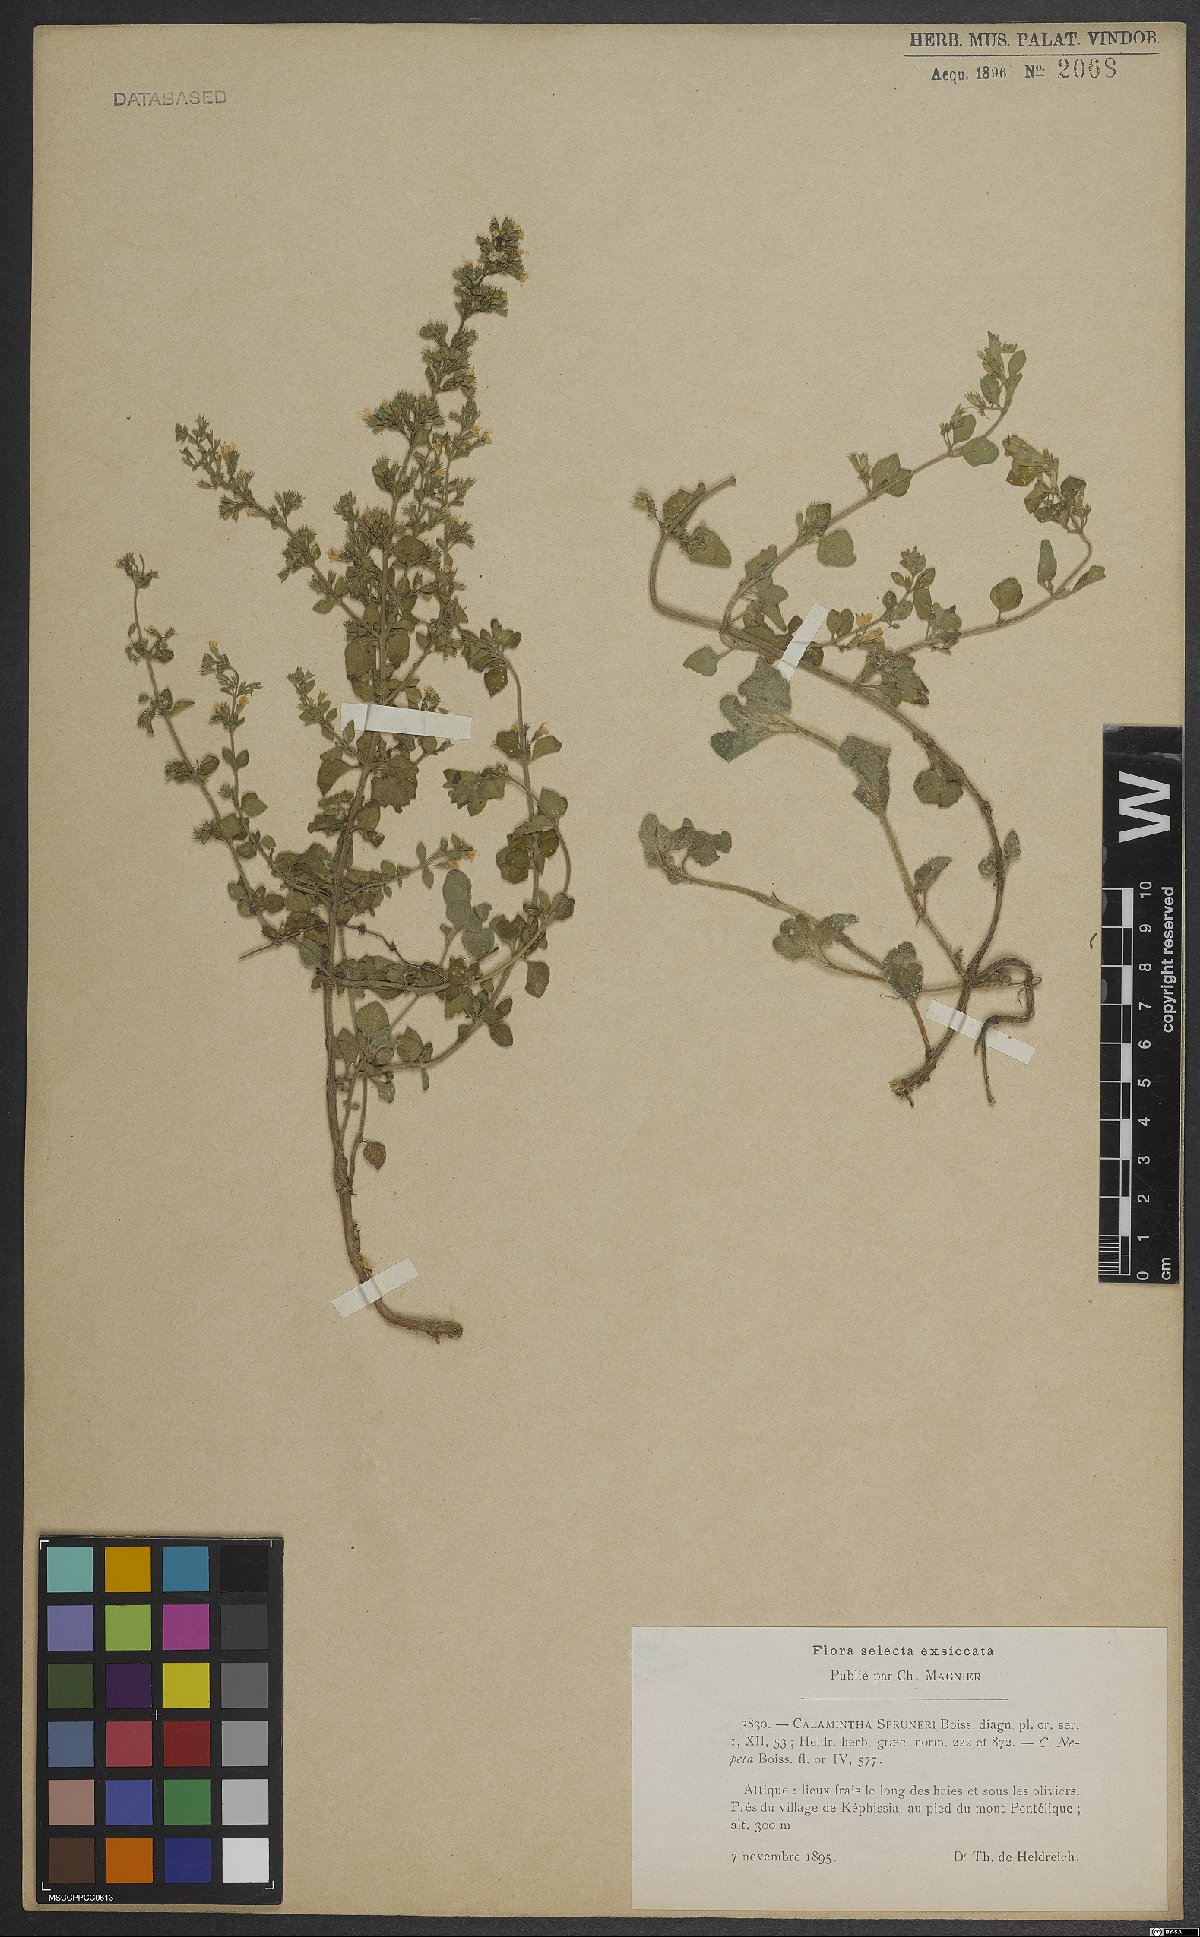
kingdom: Plantae
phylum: Tracheophyta
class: Magnoliopsida
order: Lamiales
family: Lamiaceae
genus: Clinopodium
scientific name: Clinopodium nepeta
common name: Lesser calamint
